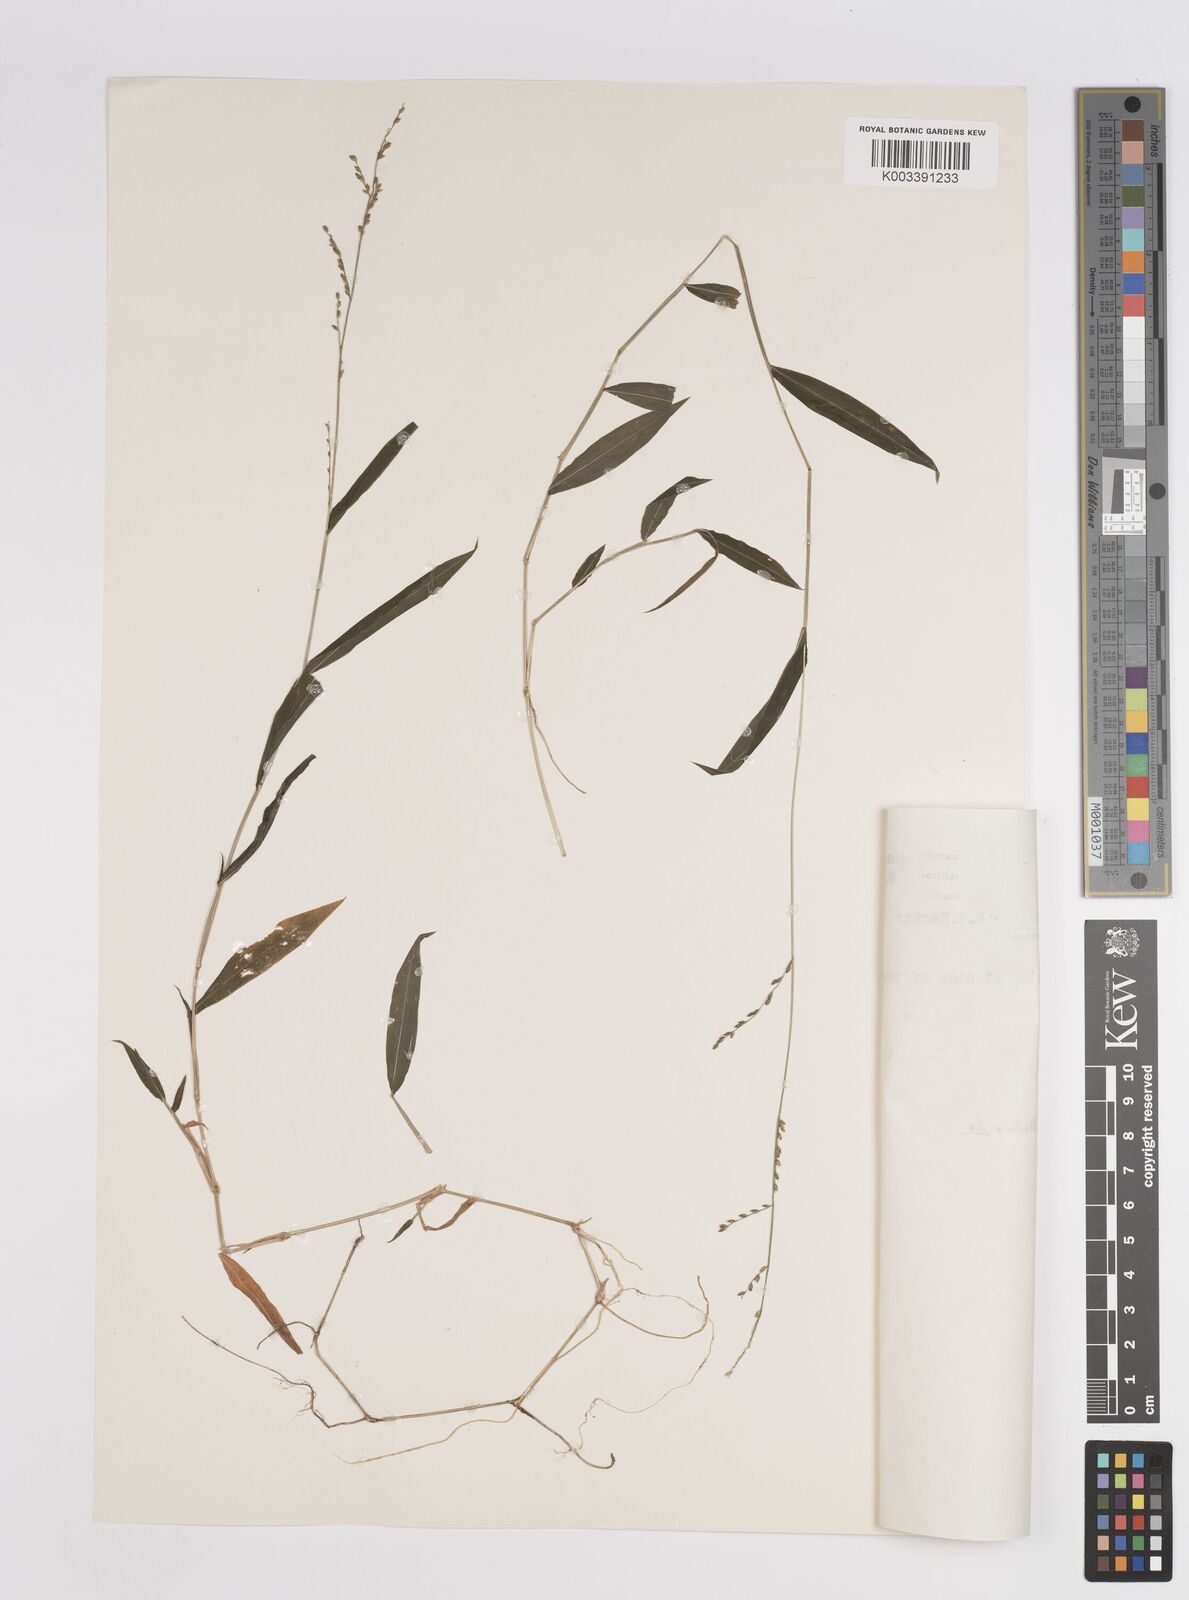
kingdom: Plantae
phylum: Tracheophyta
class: Liliopsida
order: Poales
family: Poaceae
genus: Panicum
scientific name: Panicum robynsii
